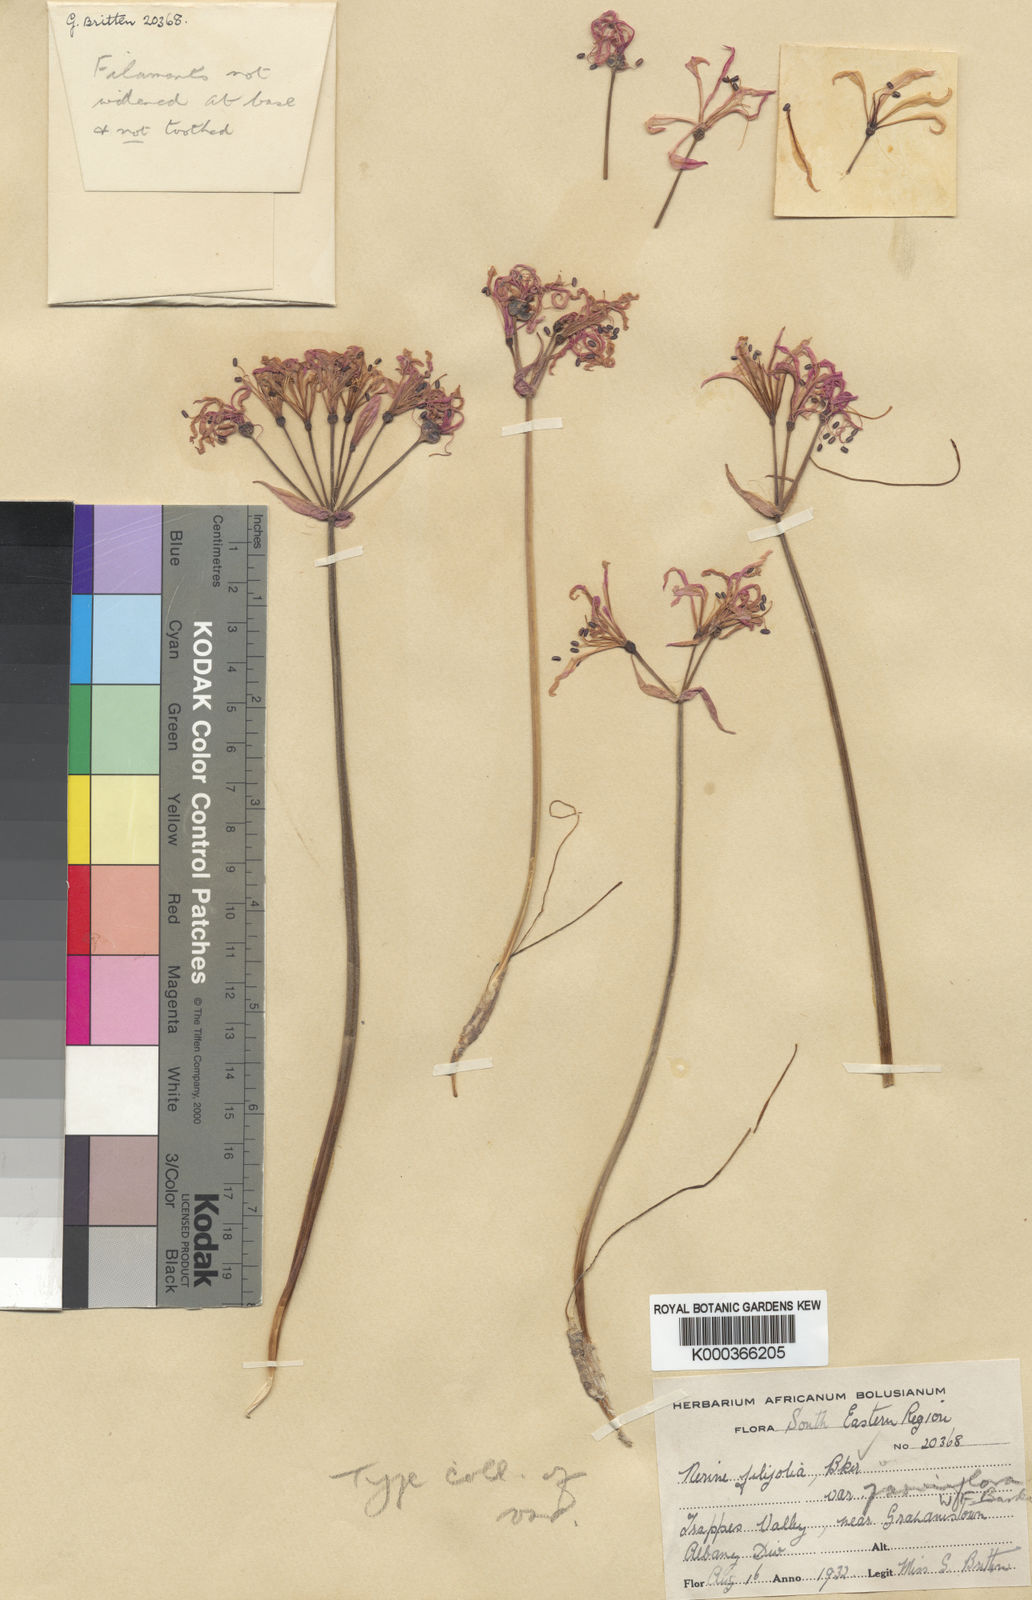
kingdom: Plantae
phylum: Tracheophyta
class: Liliopsida
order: Asparagales
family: Amaryllidaceae
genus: Nerine
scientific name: Nerine filifolia
